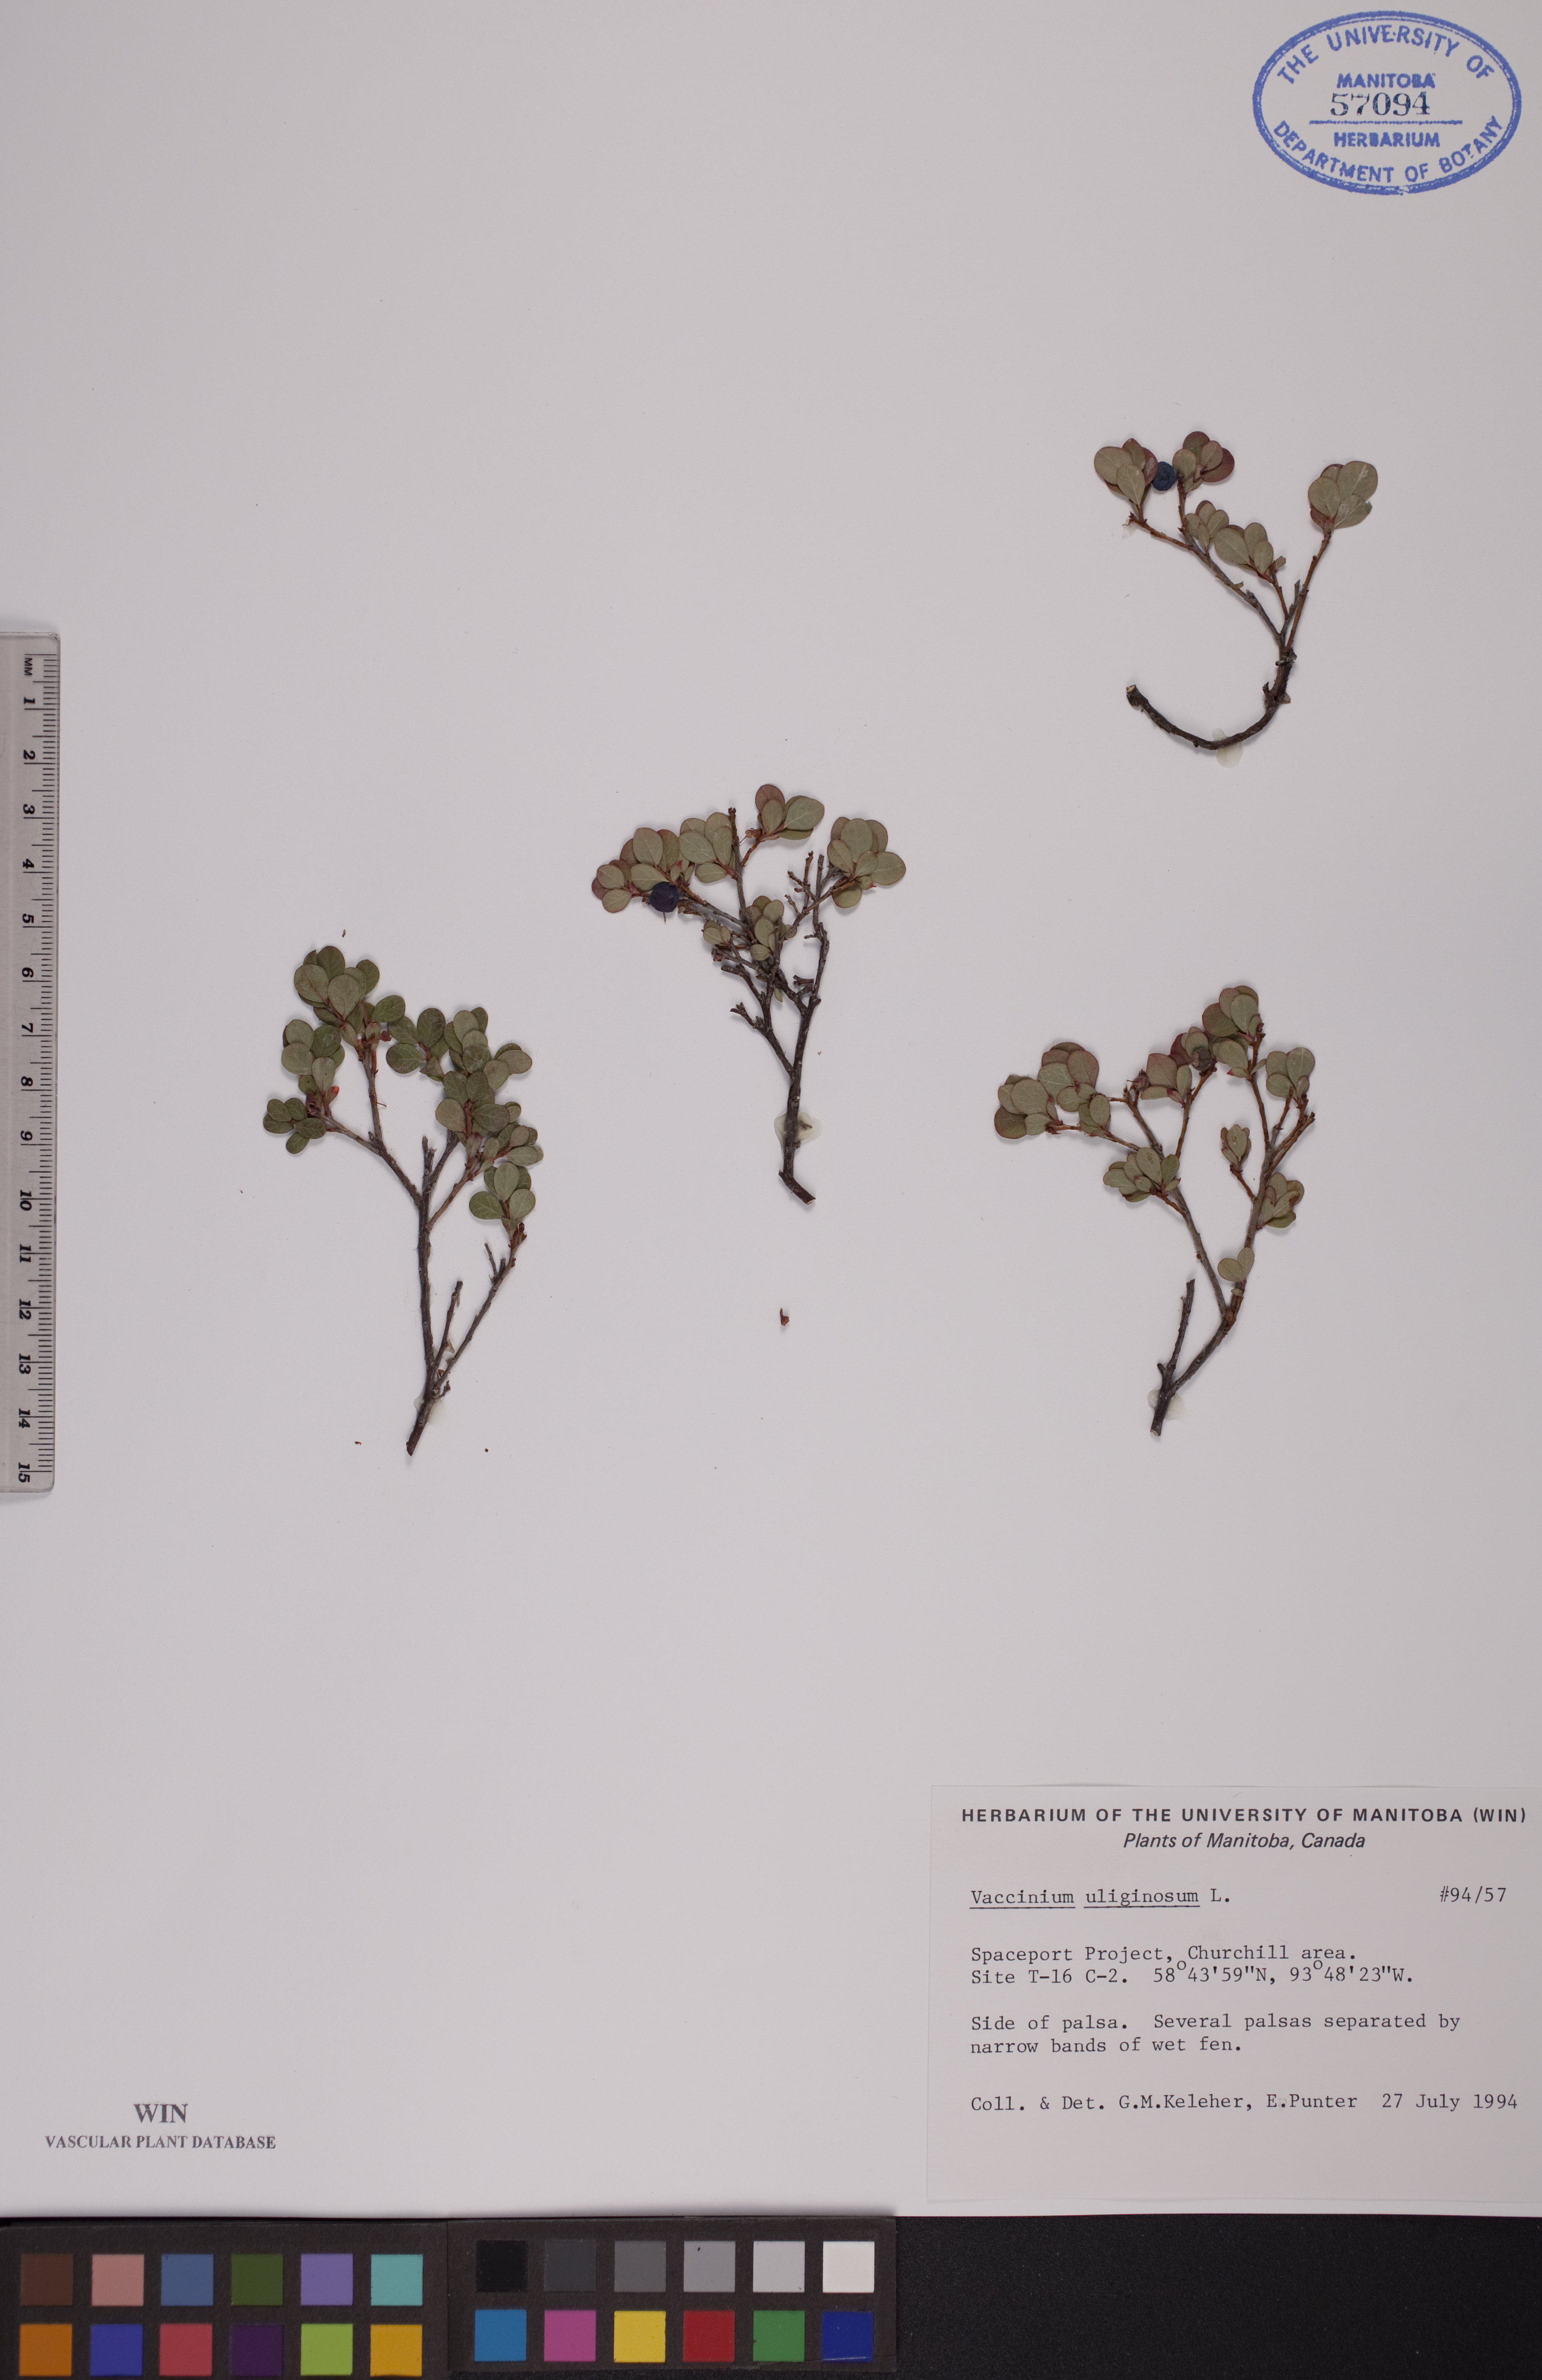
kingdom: Plantae
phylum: Tracheophyta
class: Magnoliopsida
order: Ericales
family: Ericaceae
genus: Vaccinium
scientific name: Vaccinium uliginosum
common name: Bog bilberry
